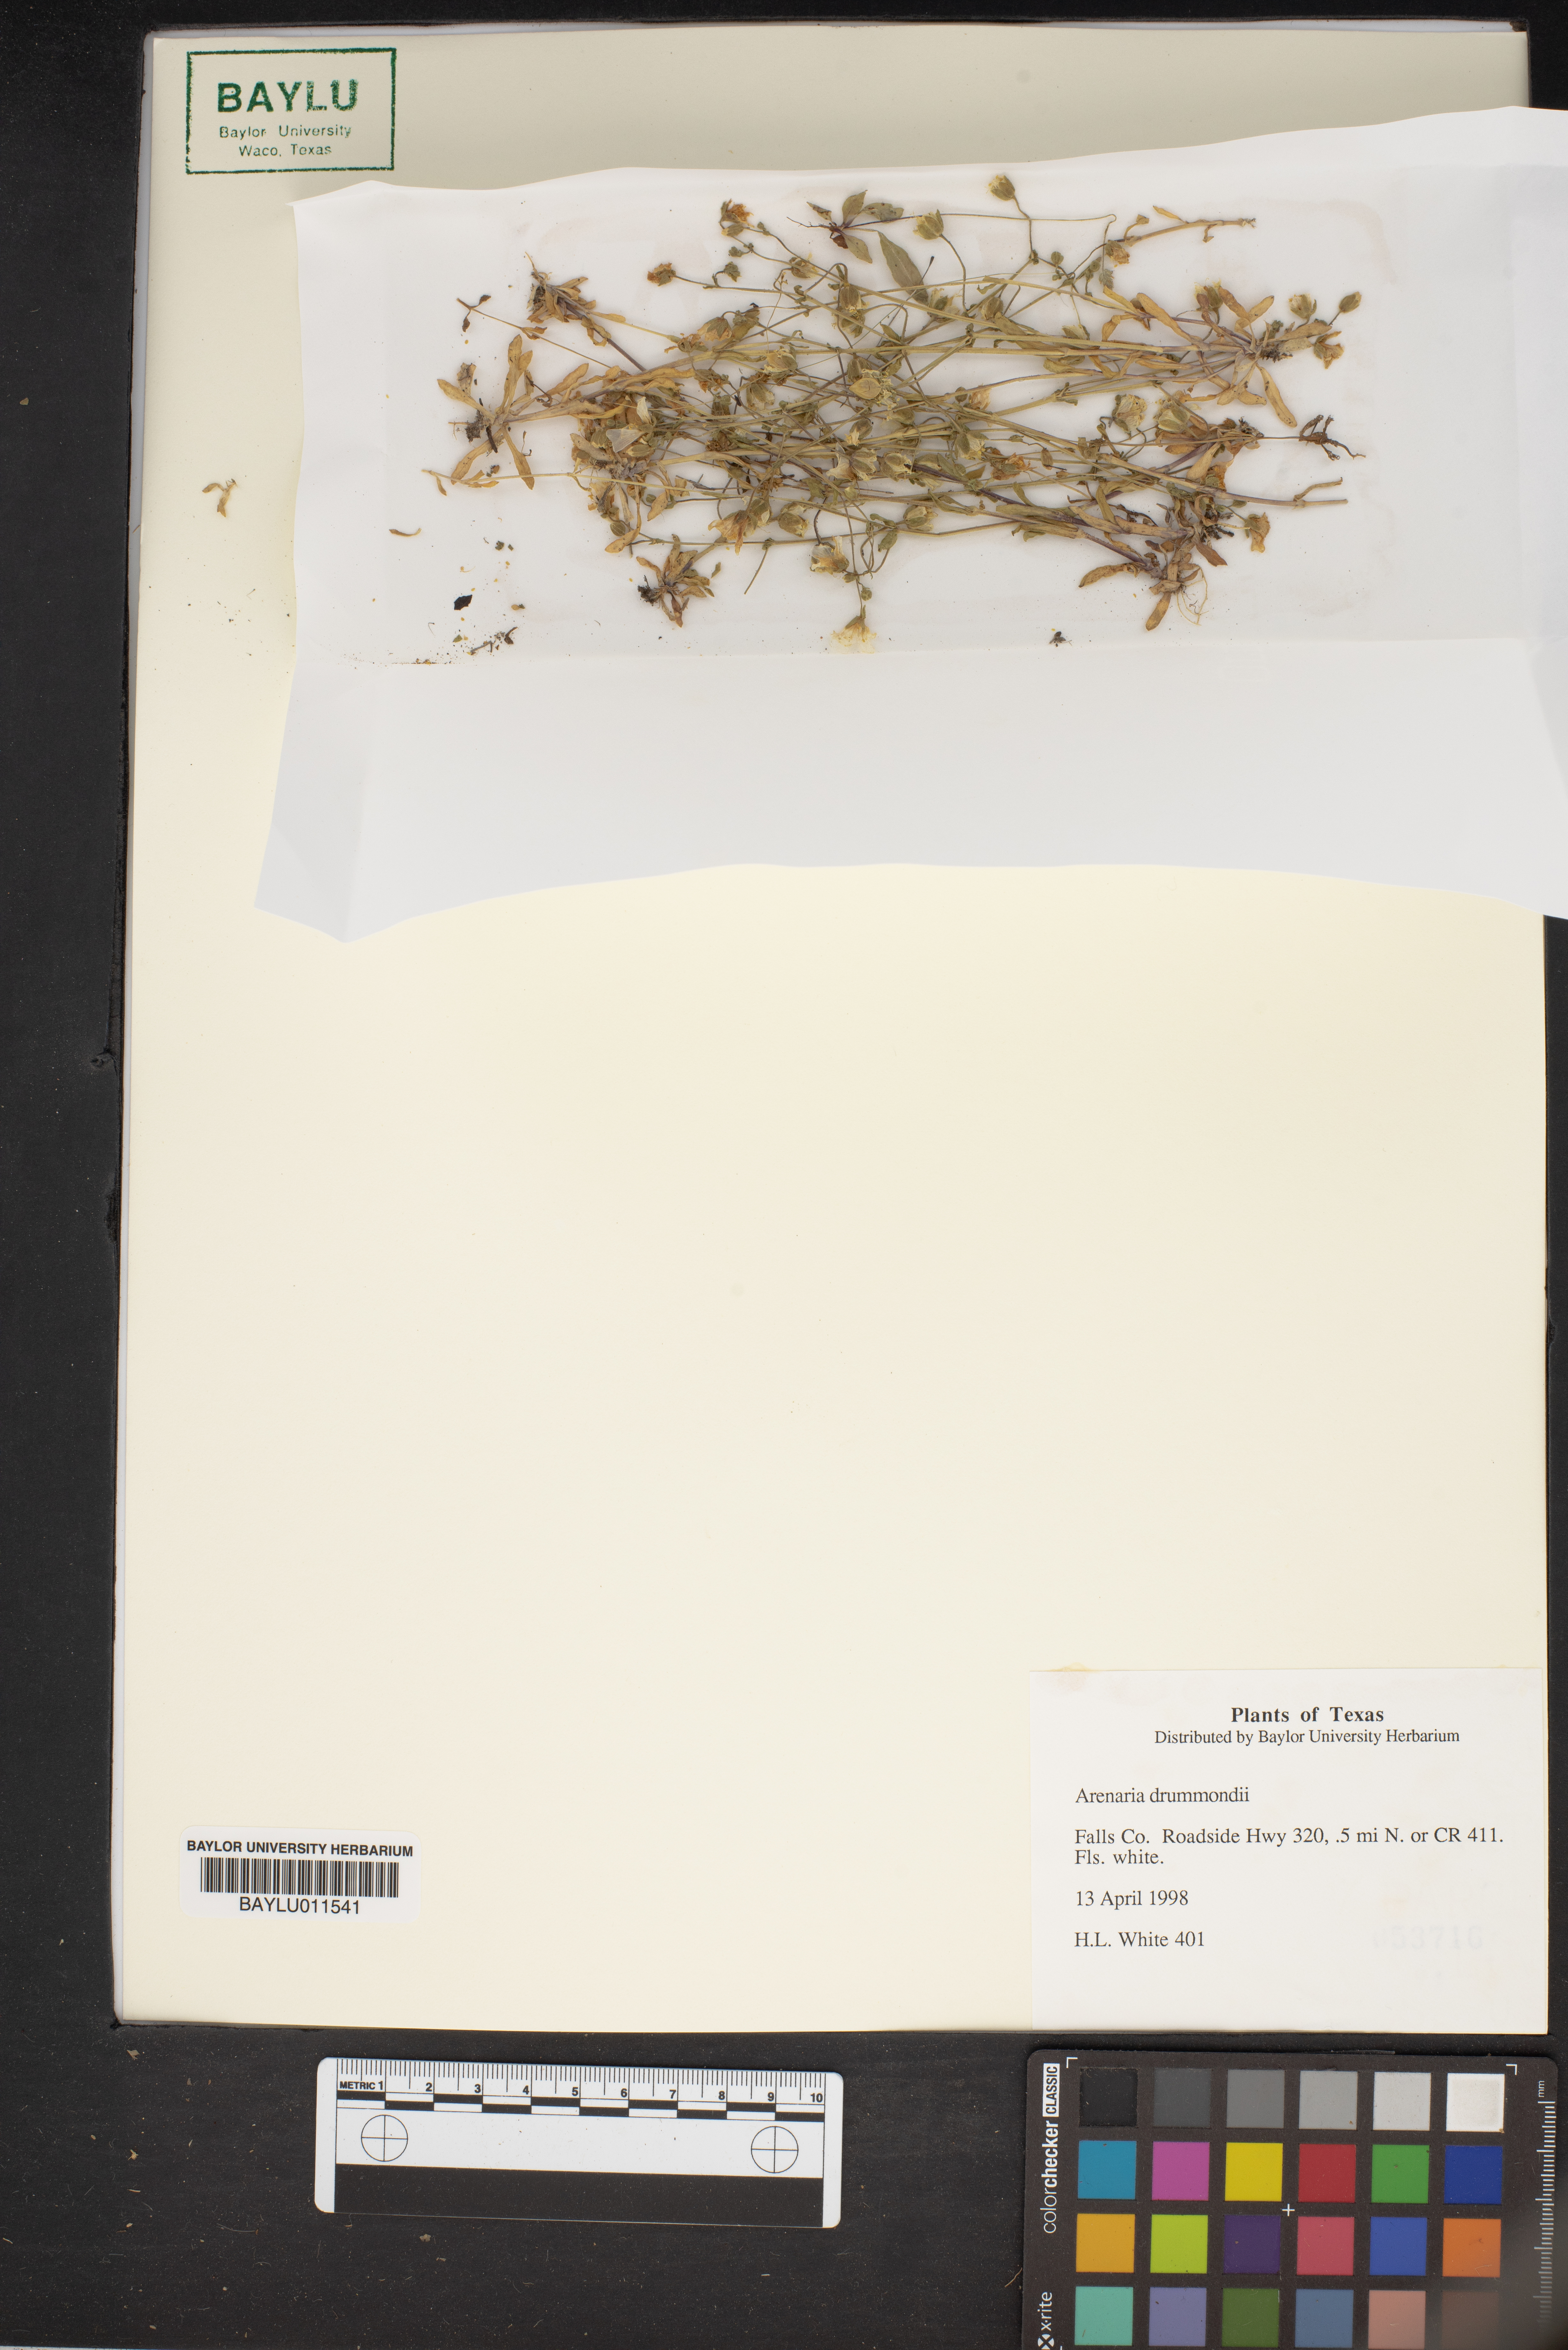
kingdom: Plantae
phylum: Tracheophyta
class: Magnoliopsida
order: Caryophyllales
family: Caryophyllaceae
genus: Geocarpon
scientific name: Geocarpon nuttallii
